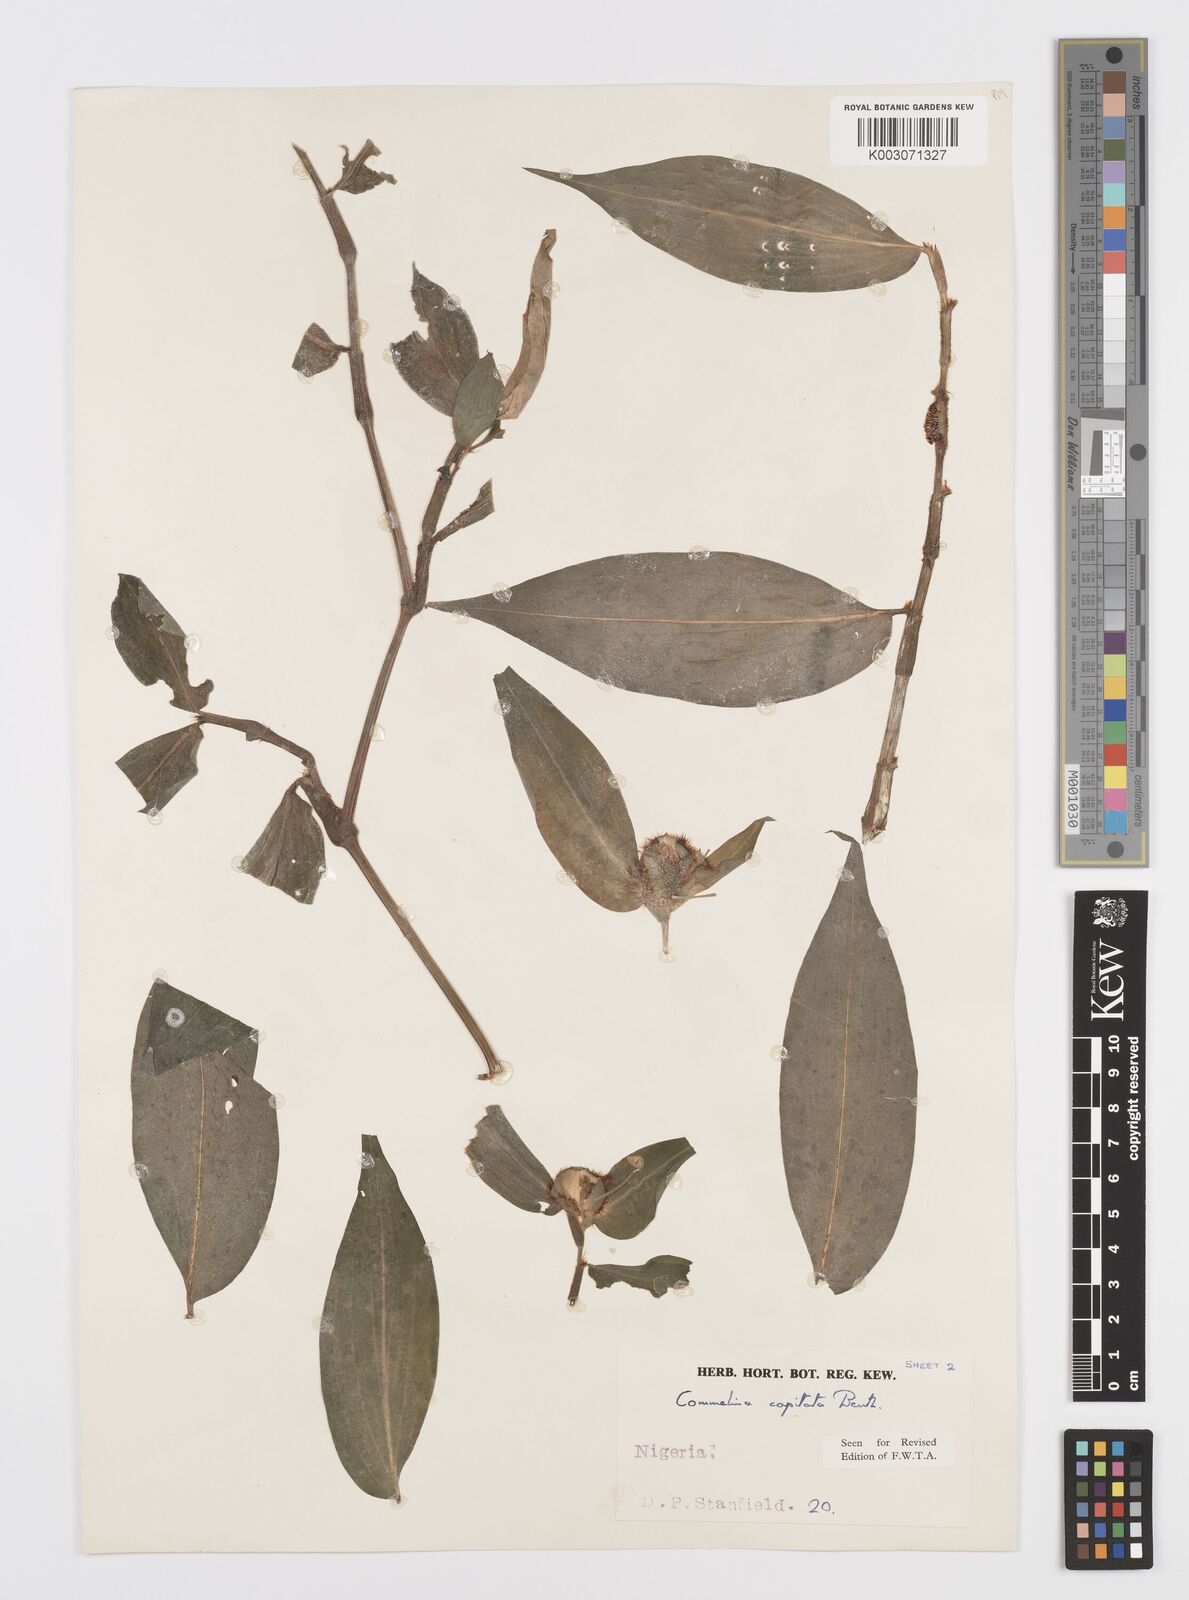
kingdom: Plantae
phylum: Tracheophyta
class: Liliopsida
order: Commelinales
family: Commelinaceae
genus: Commelina
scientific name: Commelina capitata
